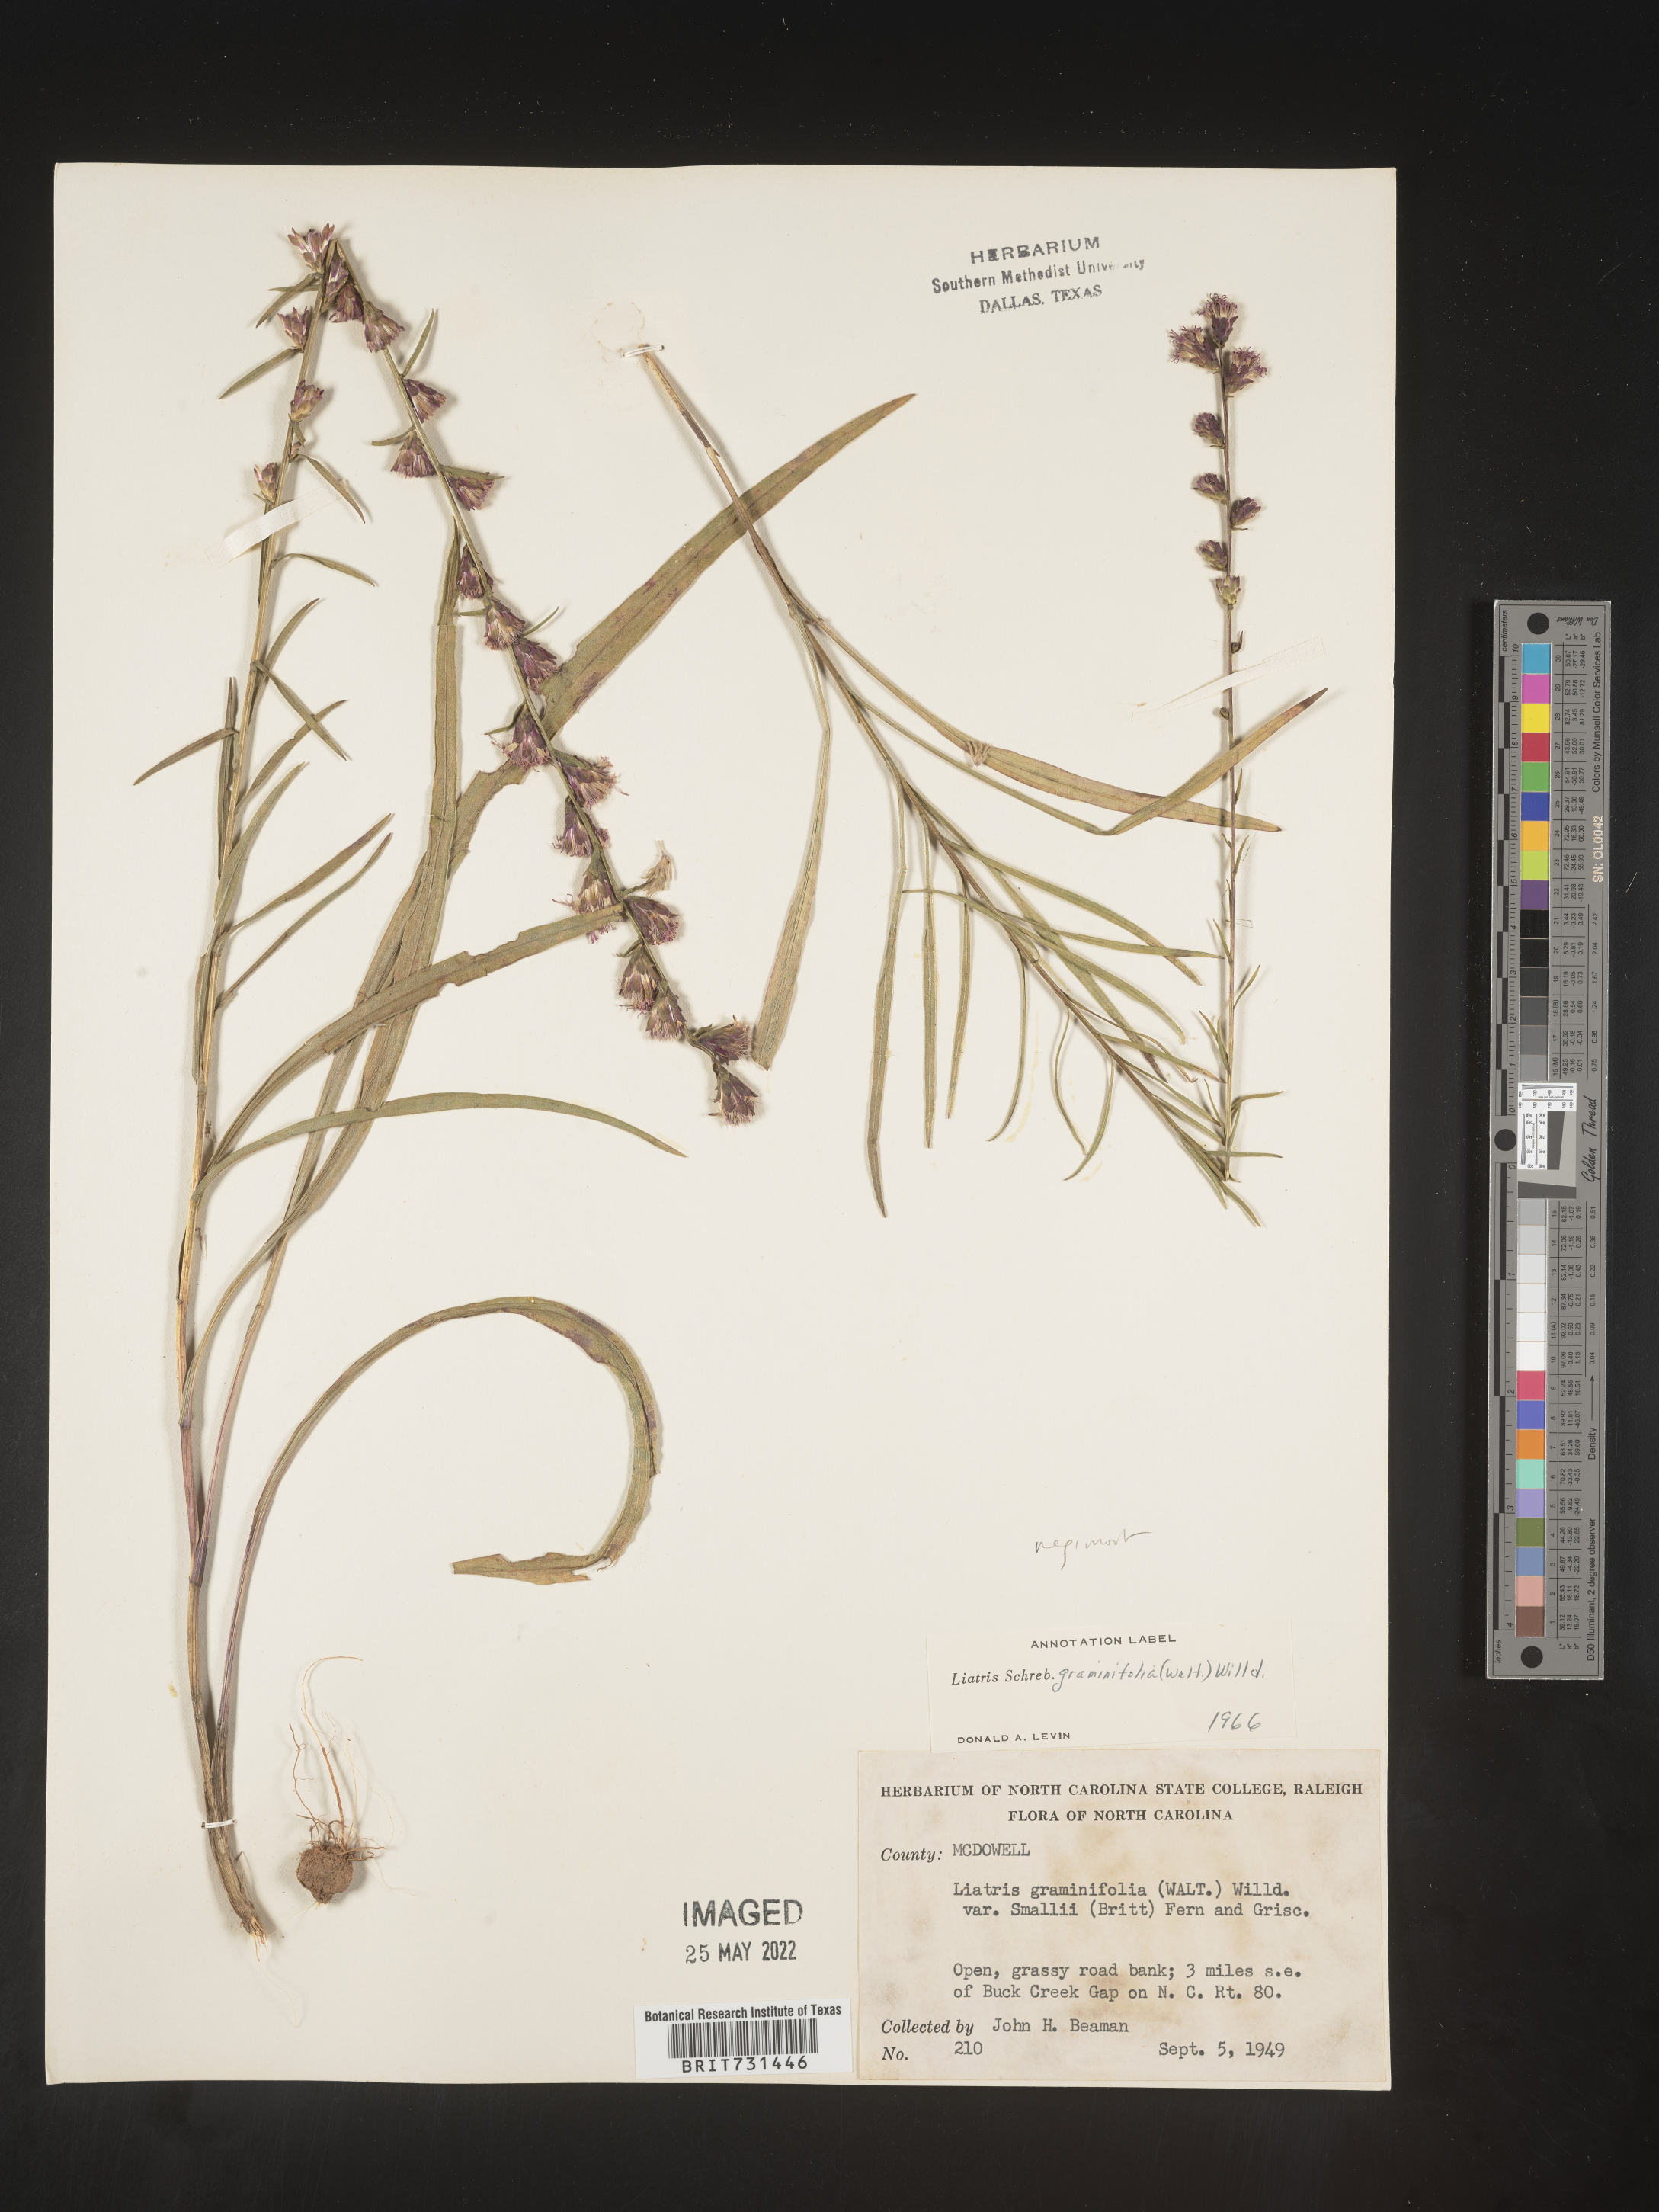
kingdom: Plantae
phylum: Tracheophyta
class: Magnoliopsida
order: Asterales
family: Asteraceae
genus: Liatris
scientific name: Liatris virgata
